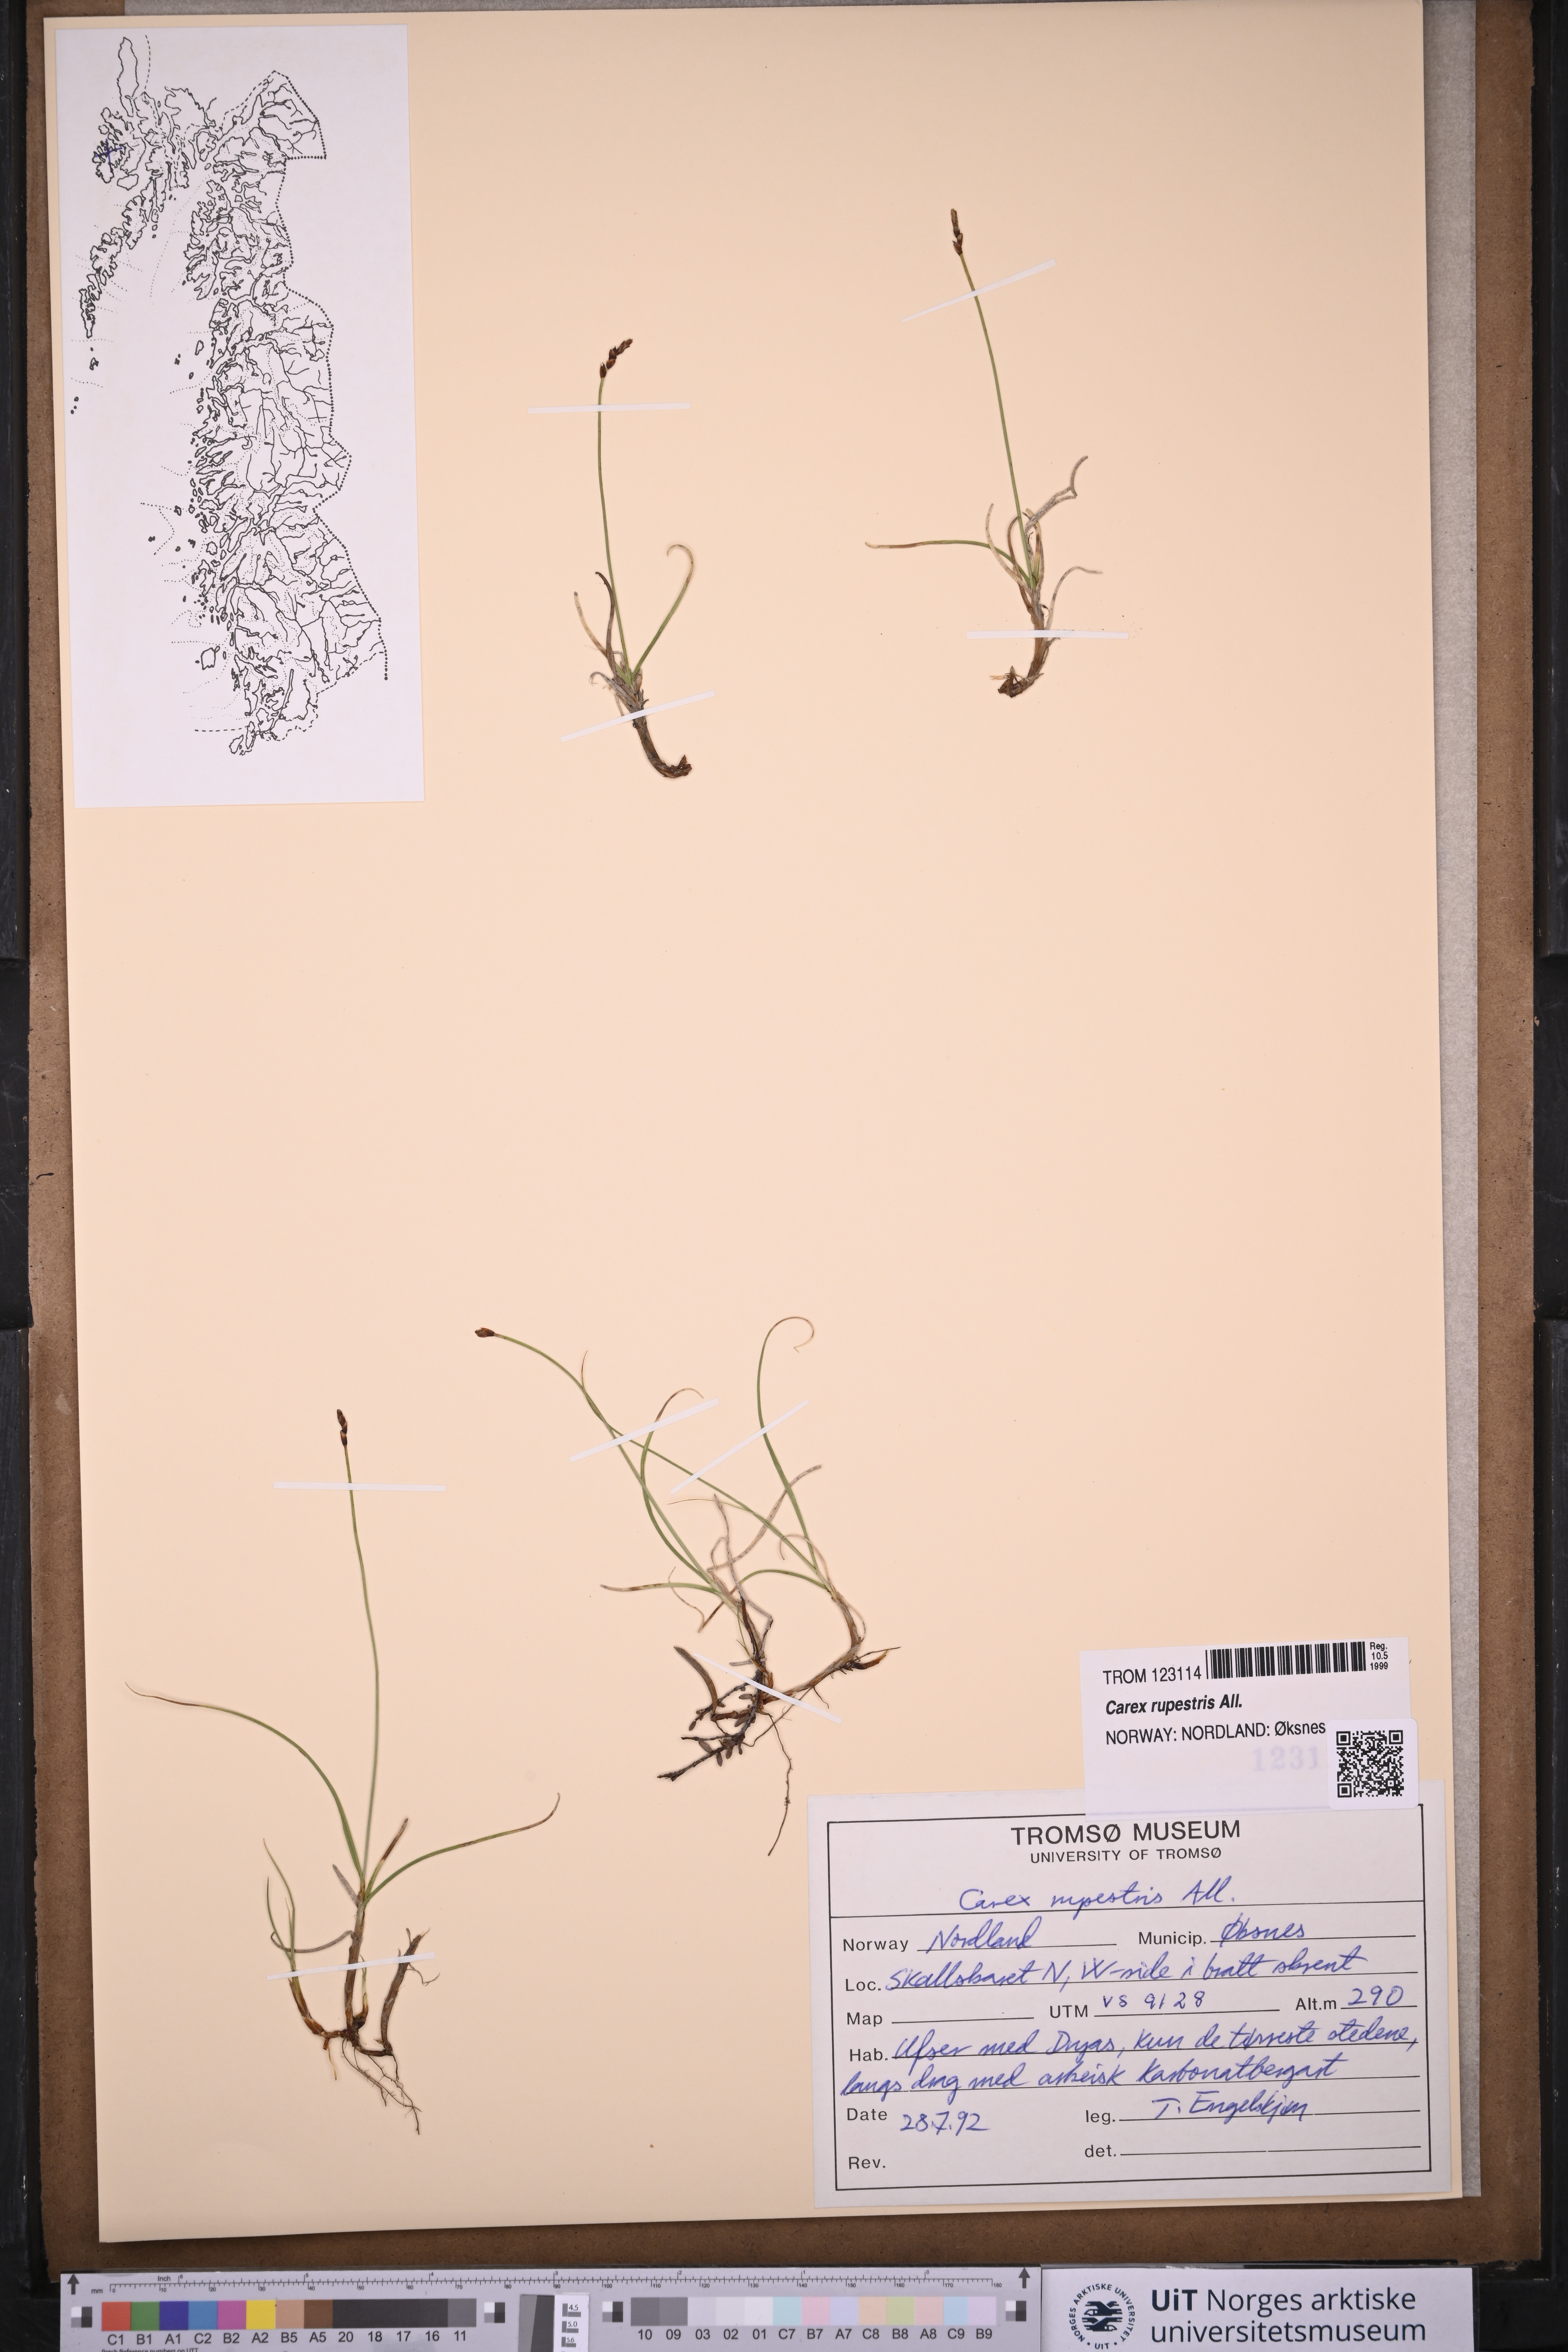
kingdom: Plantae
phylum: Tracheophyta
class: Liliopsida
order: Poales
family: Cyperaceae
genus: Carex
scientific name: Carex rupestris
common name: Rock sedge
